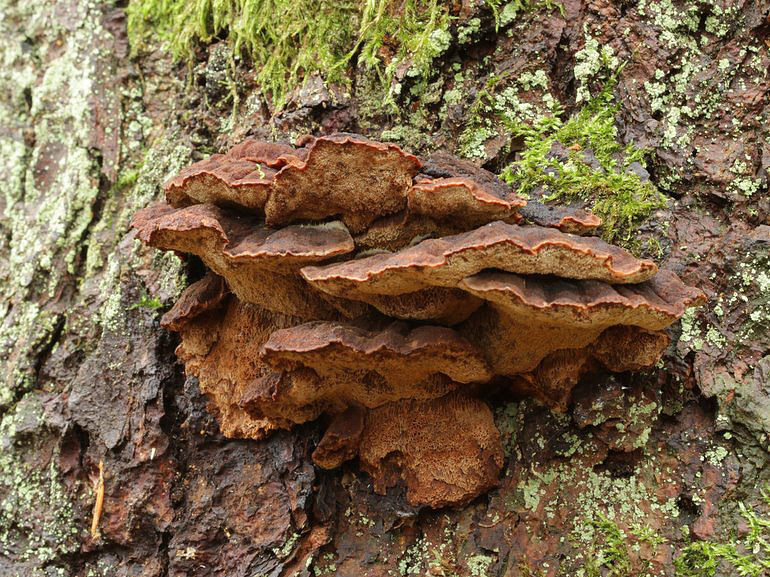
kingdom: Fungi
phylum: Basidiomycota
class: Agaricomycetes
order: Polyporales
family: Ischnodermataceae
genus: Ischnoderma
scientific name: Ischnoderma benzoinum
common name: gran-tjæreporesvamp
